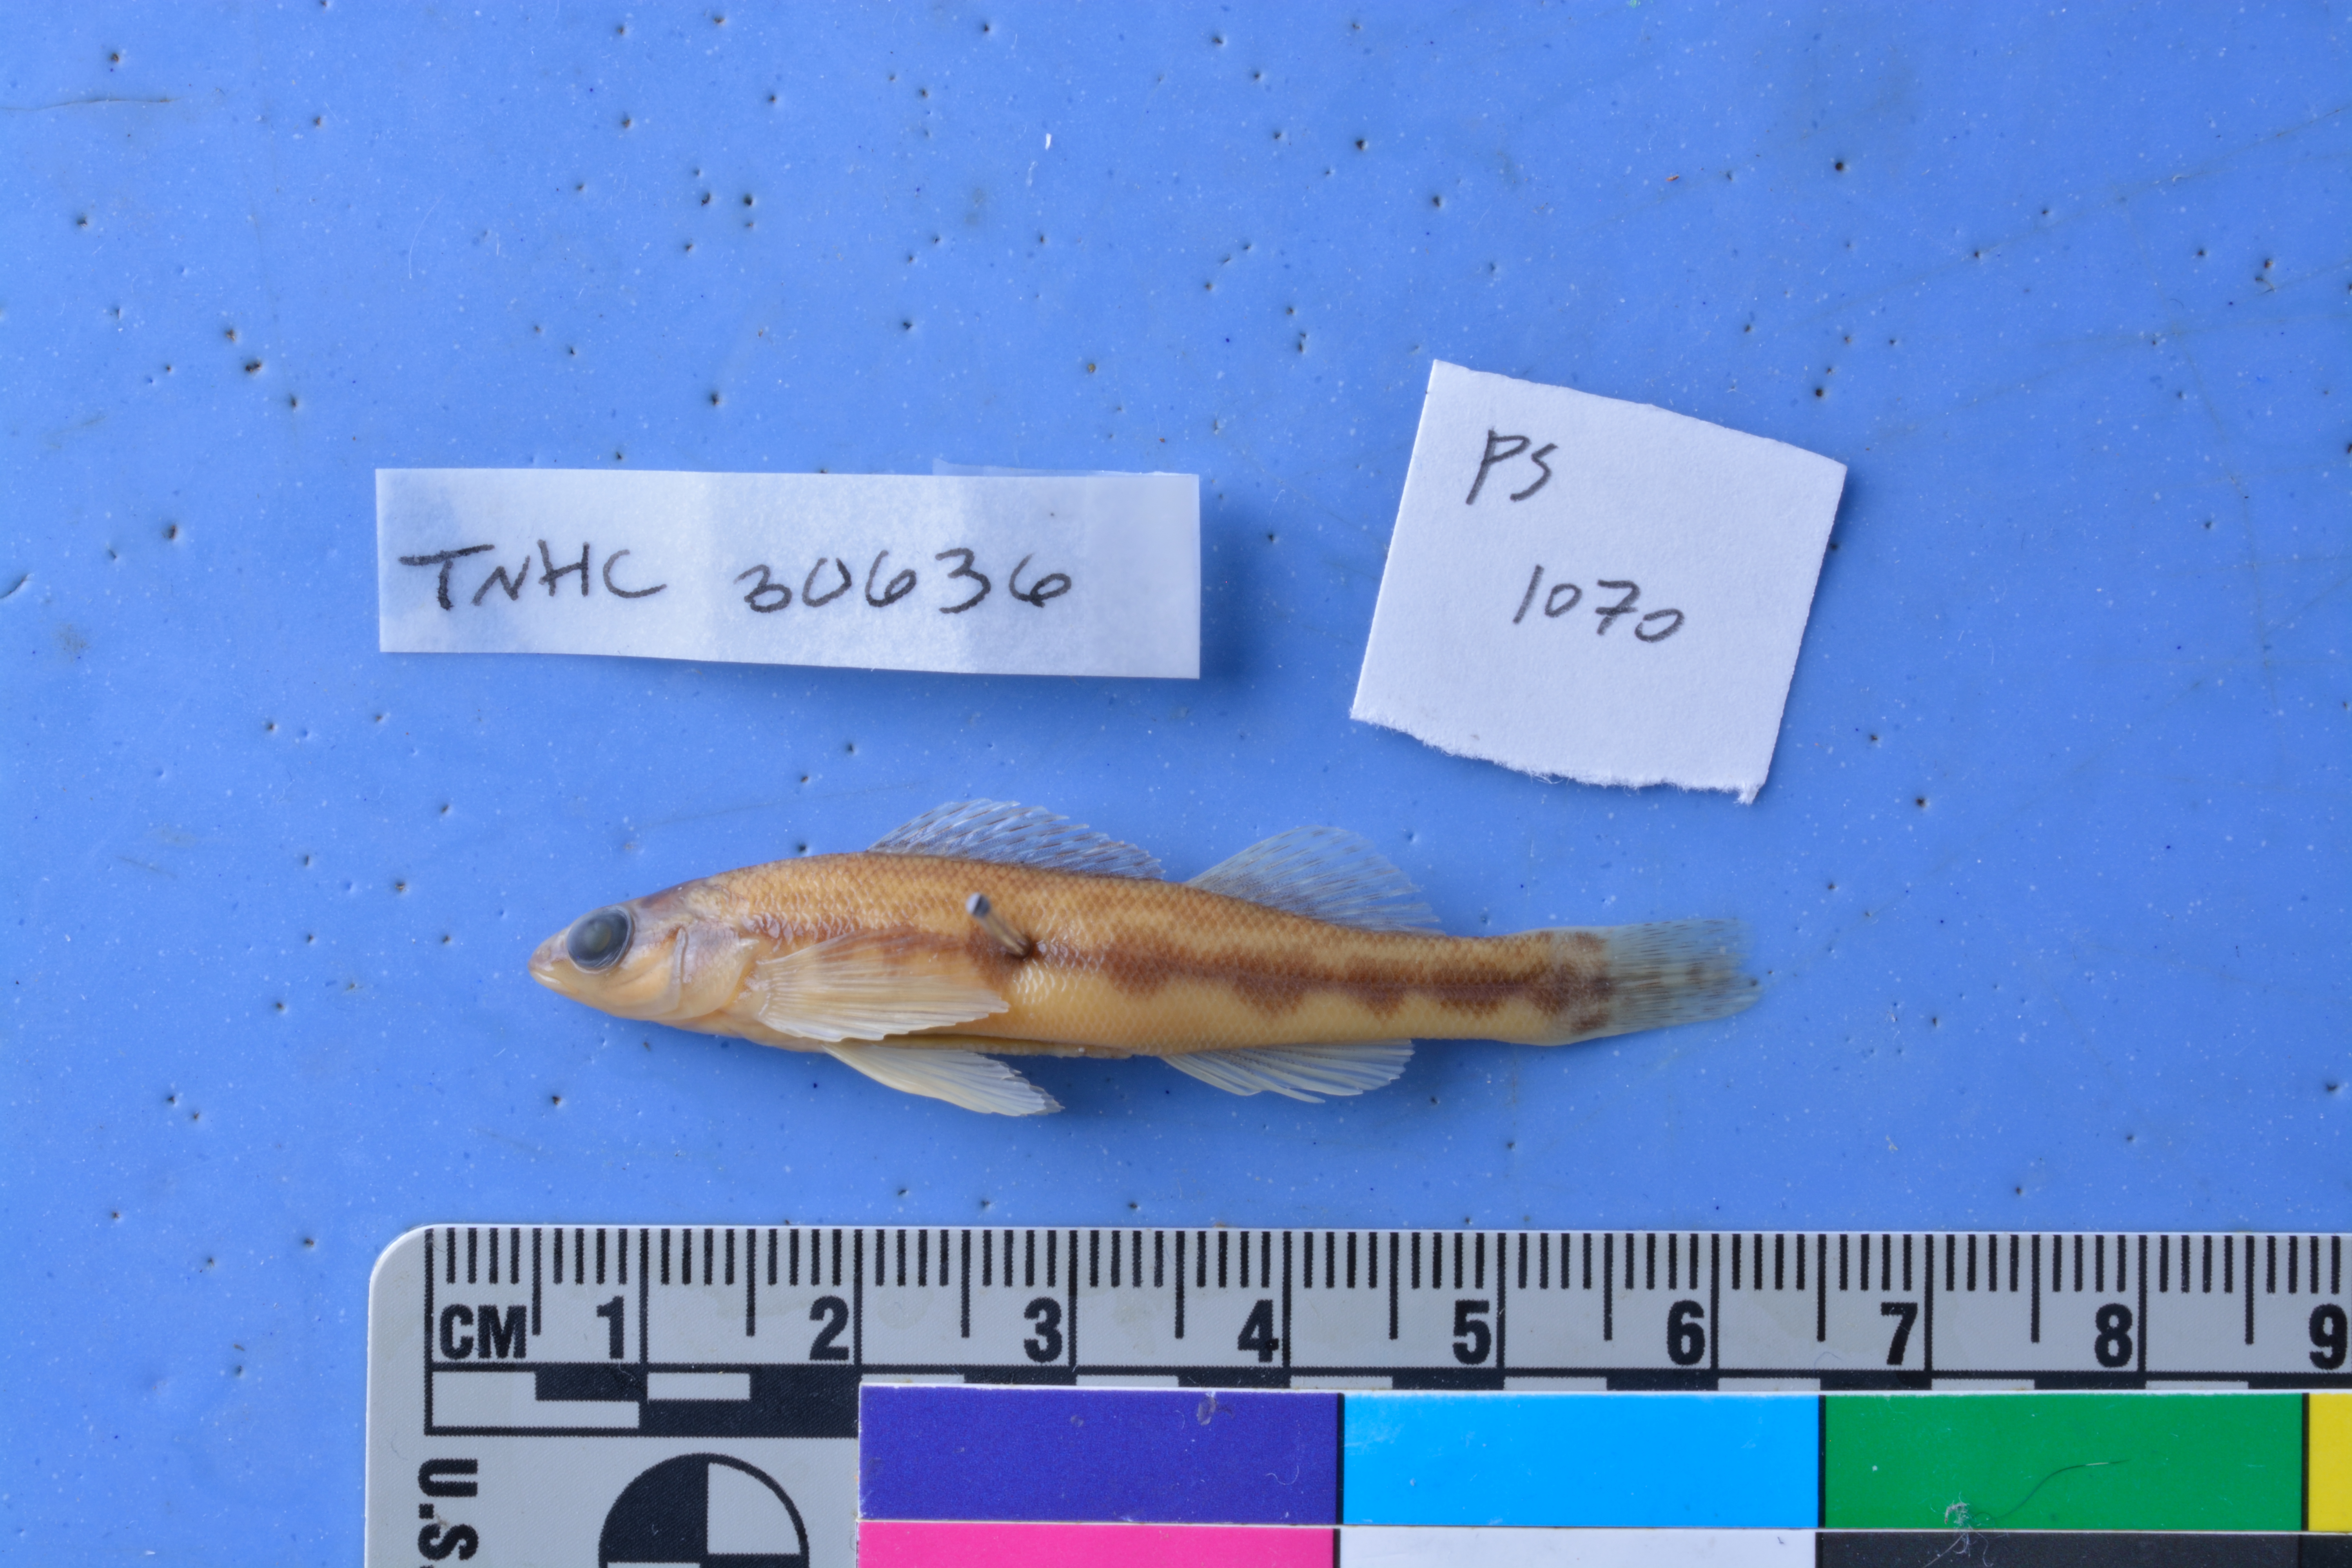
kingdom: Animalia
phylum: Chordata
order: Perciformes
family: Percidae
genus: Percina
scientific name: Percina sciera
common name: Dusky darter
